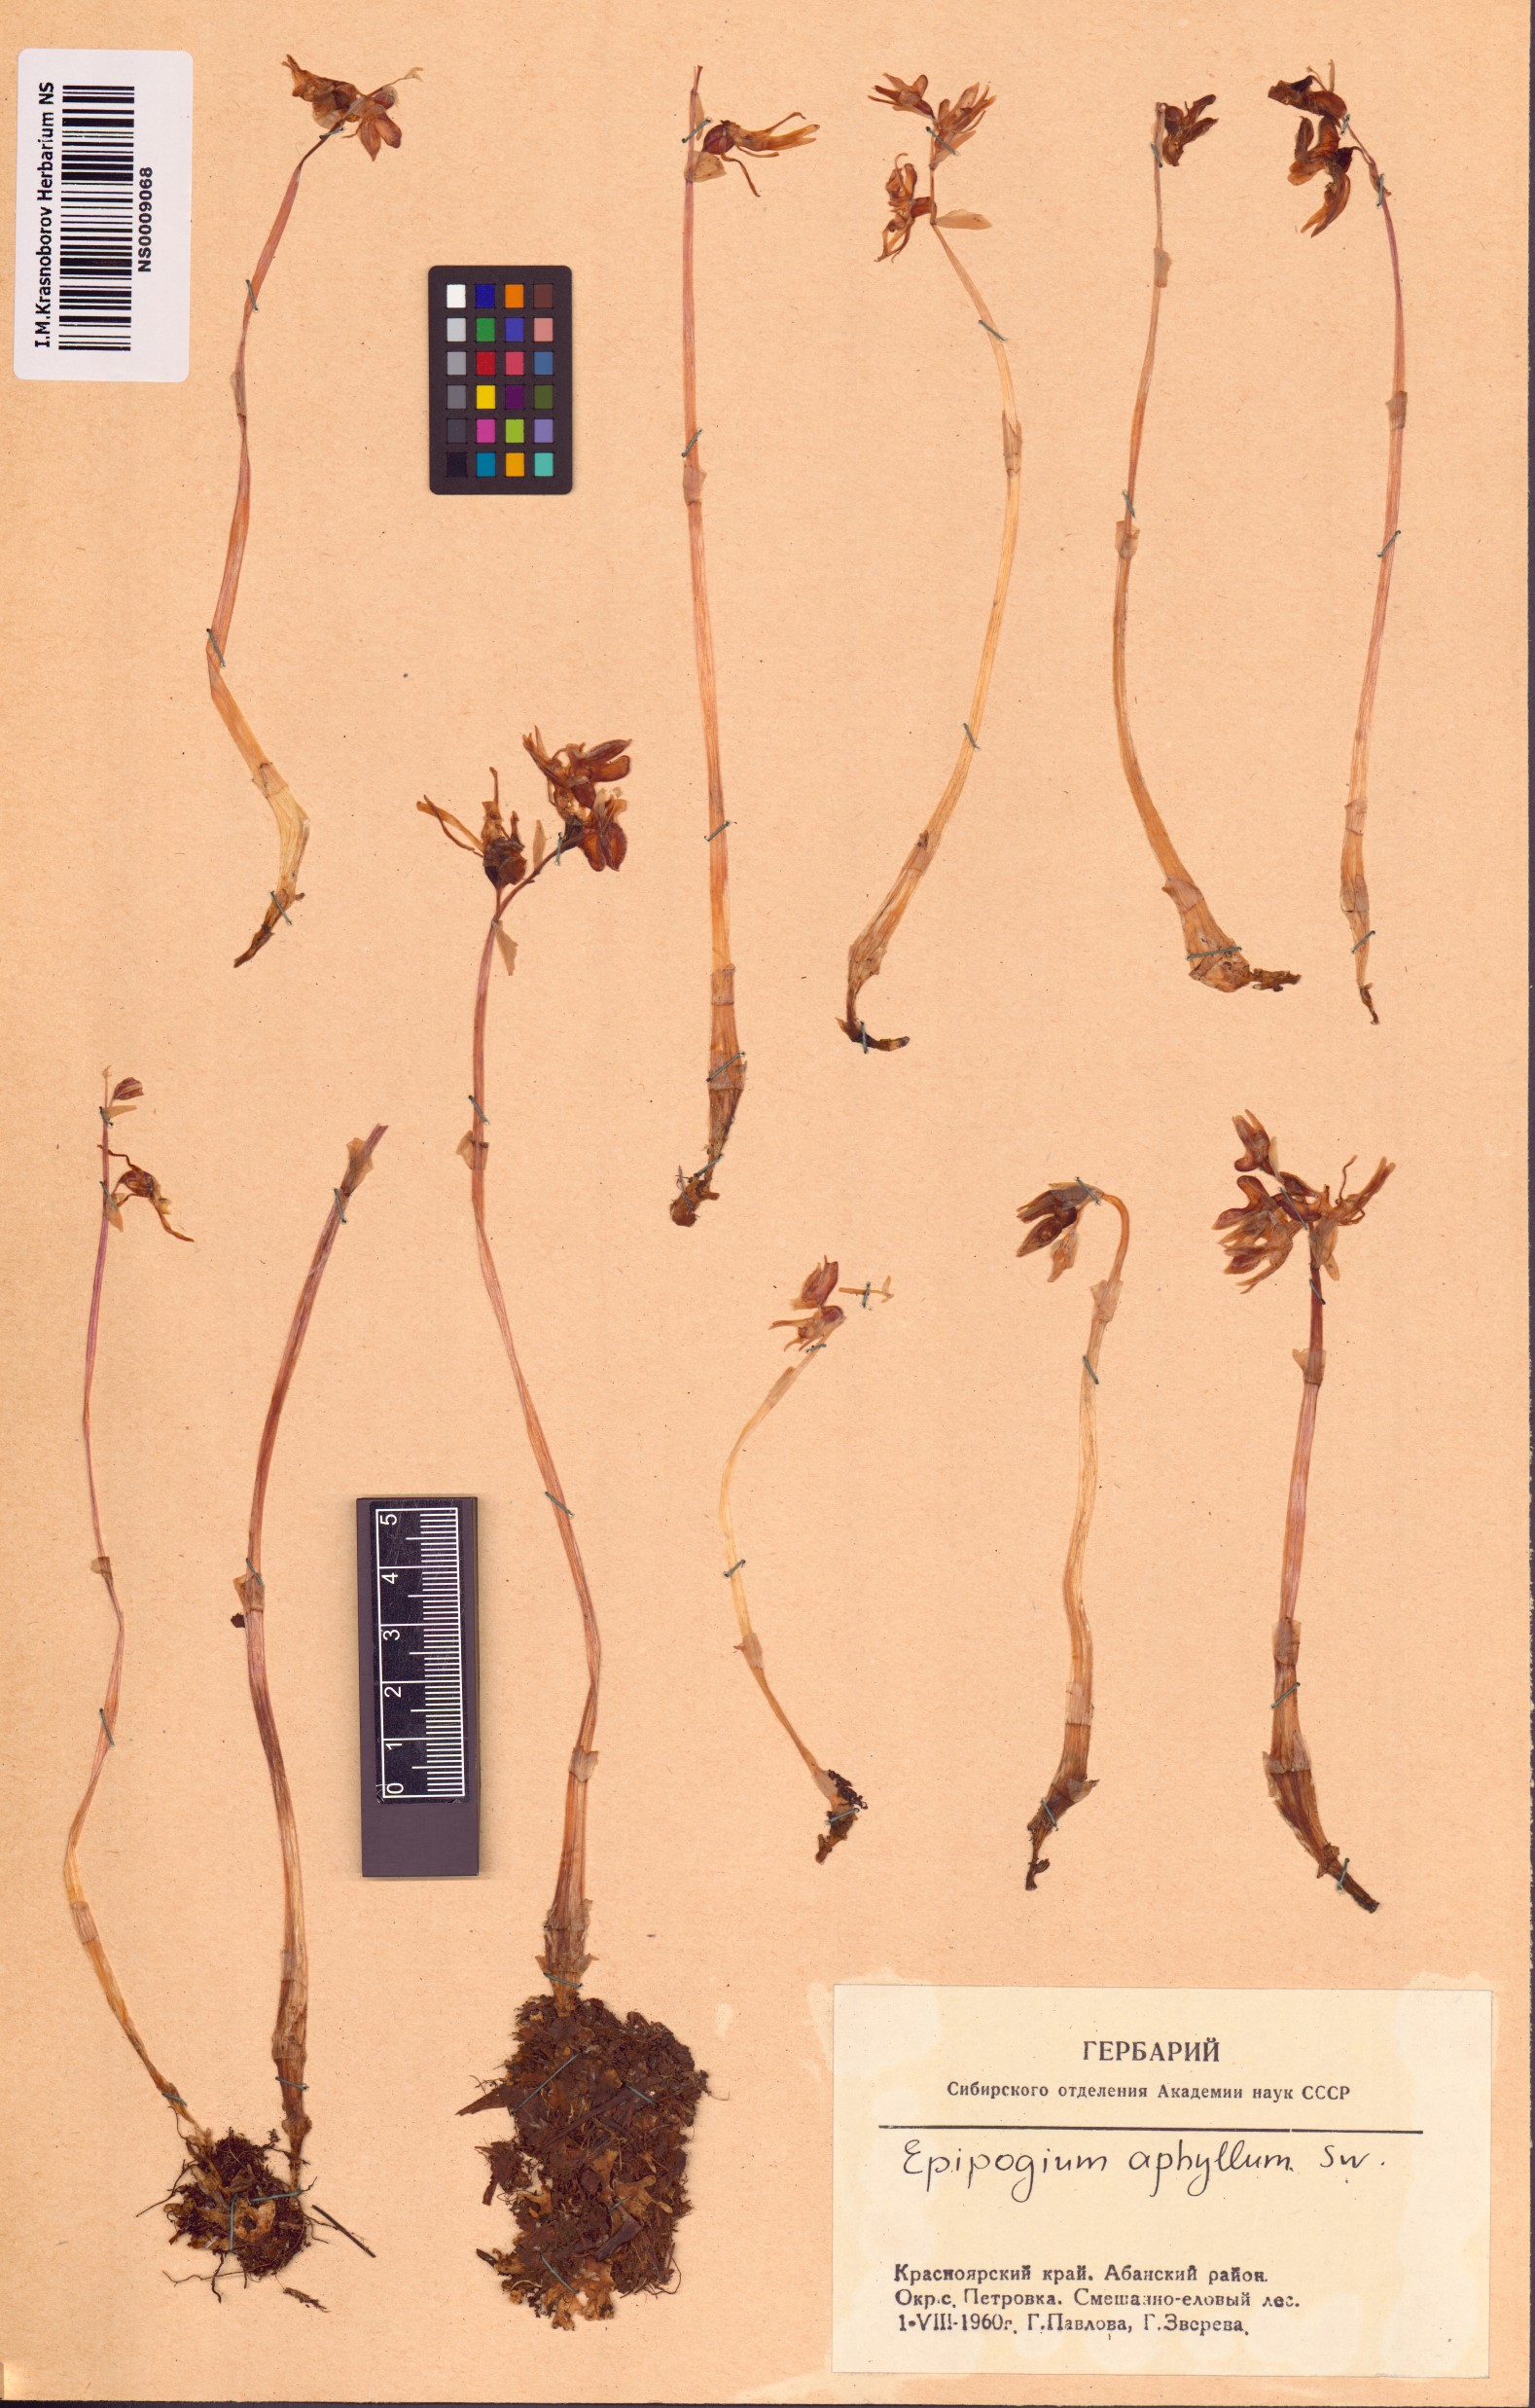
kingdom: Plantae
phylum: Tracheophyta
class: Liliopsida
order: Asparagales
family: Orchidaceae
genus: Epipogium
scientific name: Epipogium aphyllum
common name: Ghost orchid
